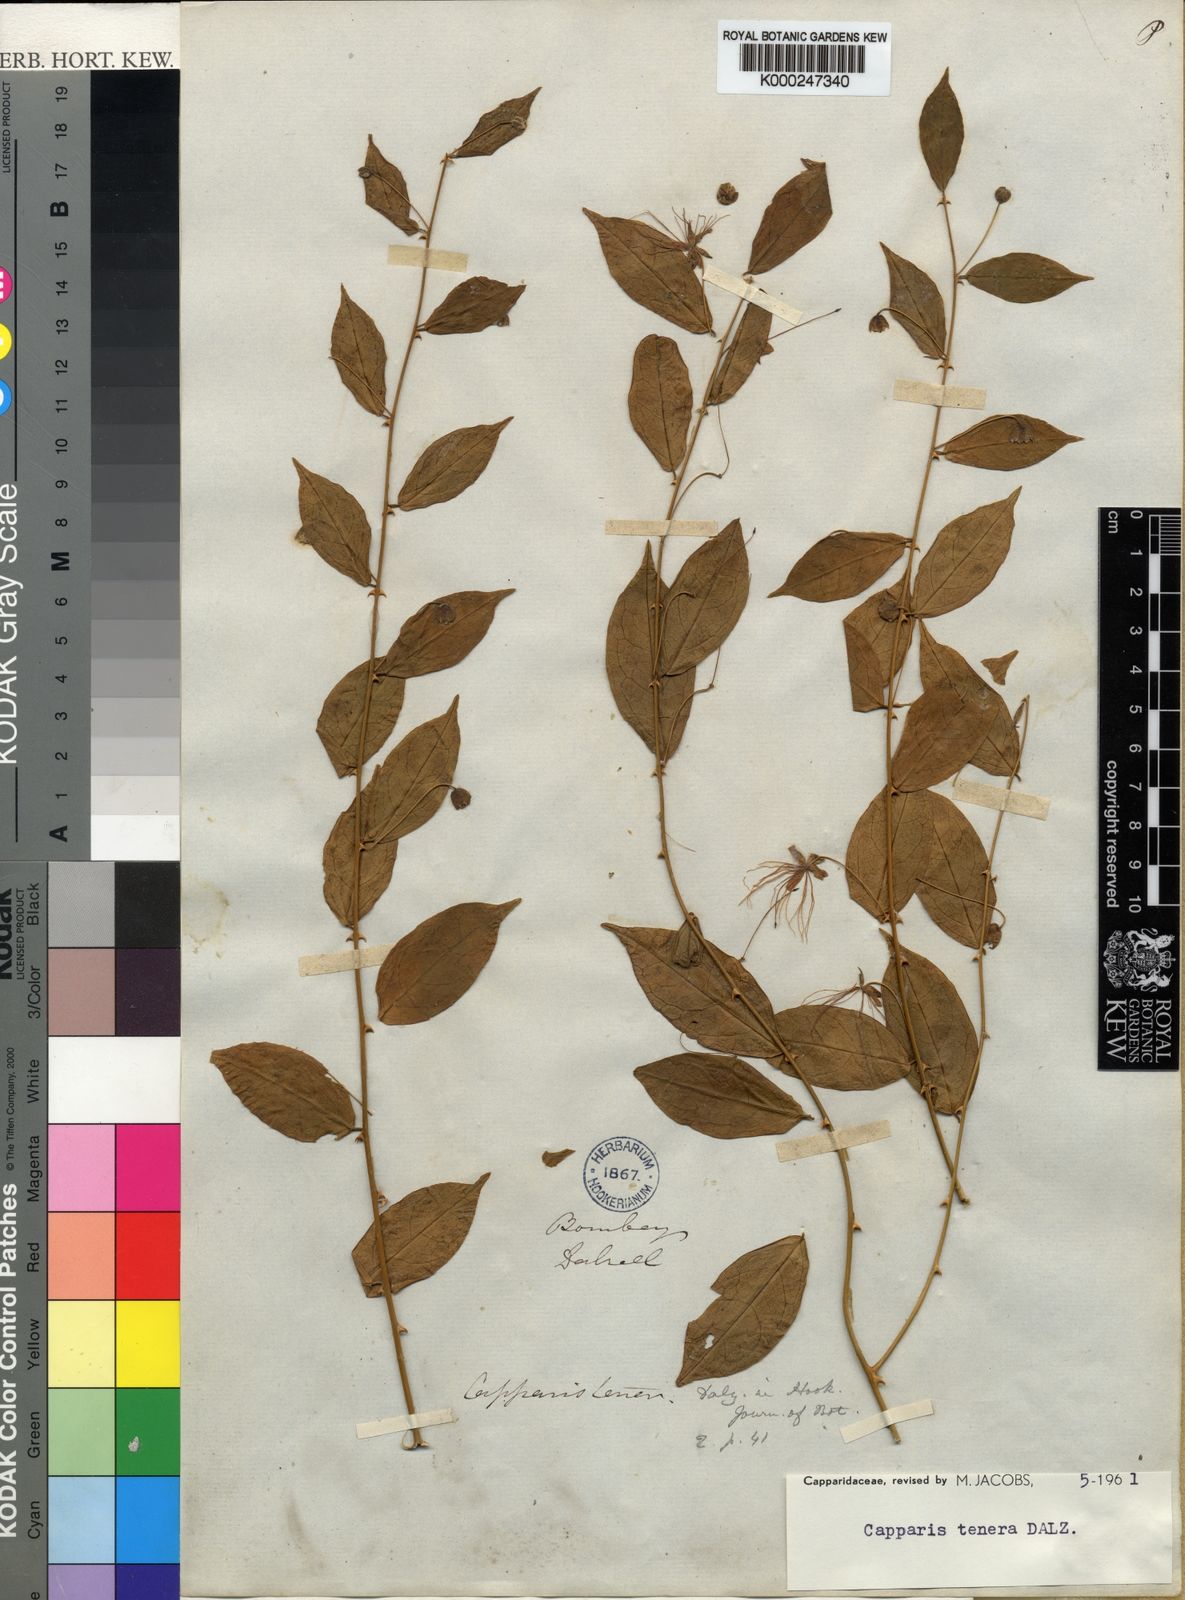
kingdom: Plantae
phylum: Tracheophyta
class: Magnoliopsida
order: Brassicales
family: Capparaceae
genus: Capparis
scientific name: Capparis tenera
